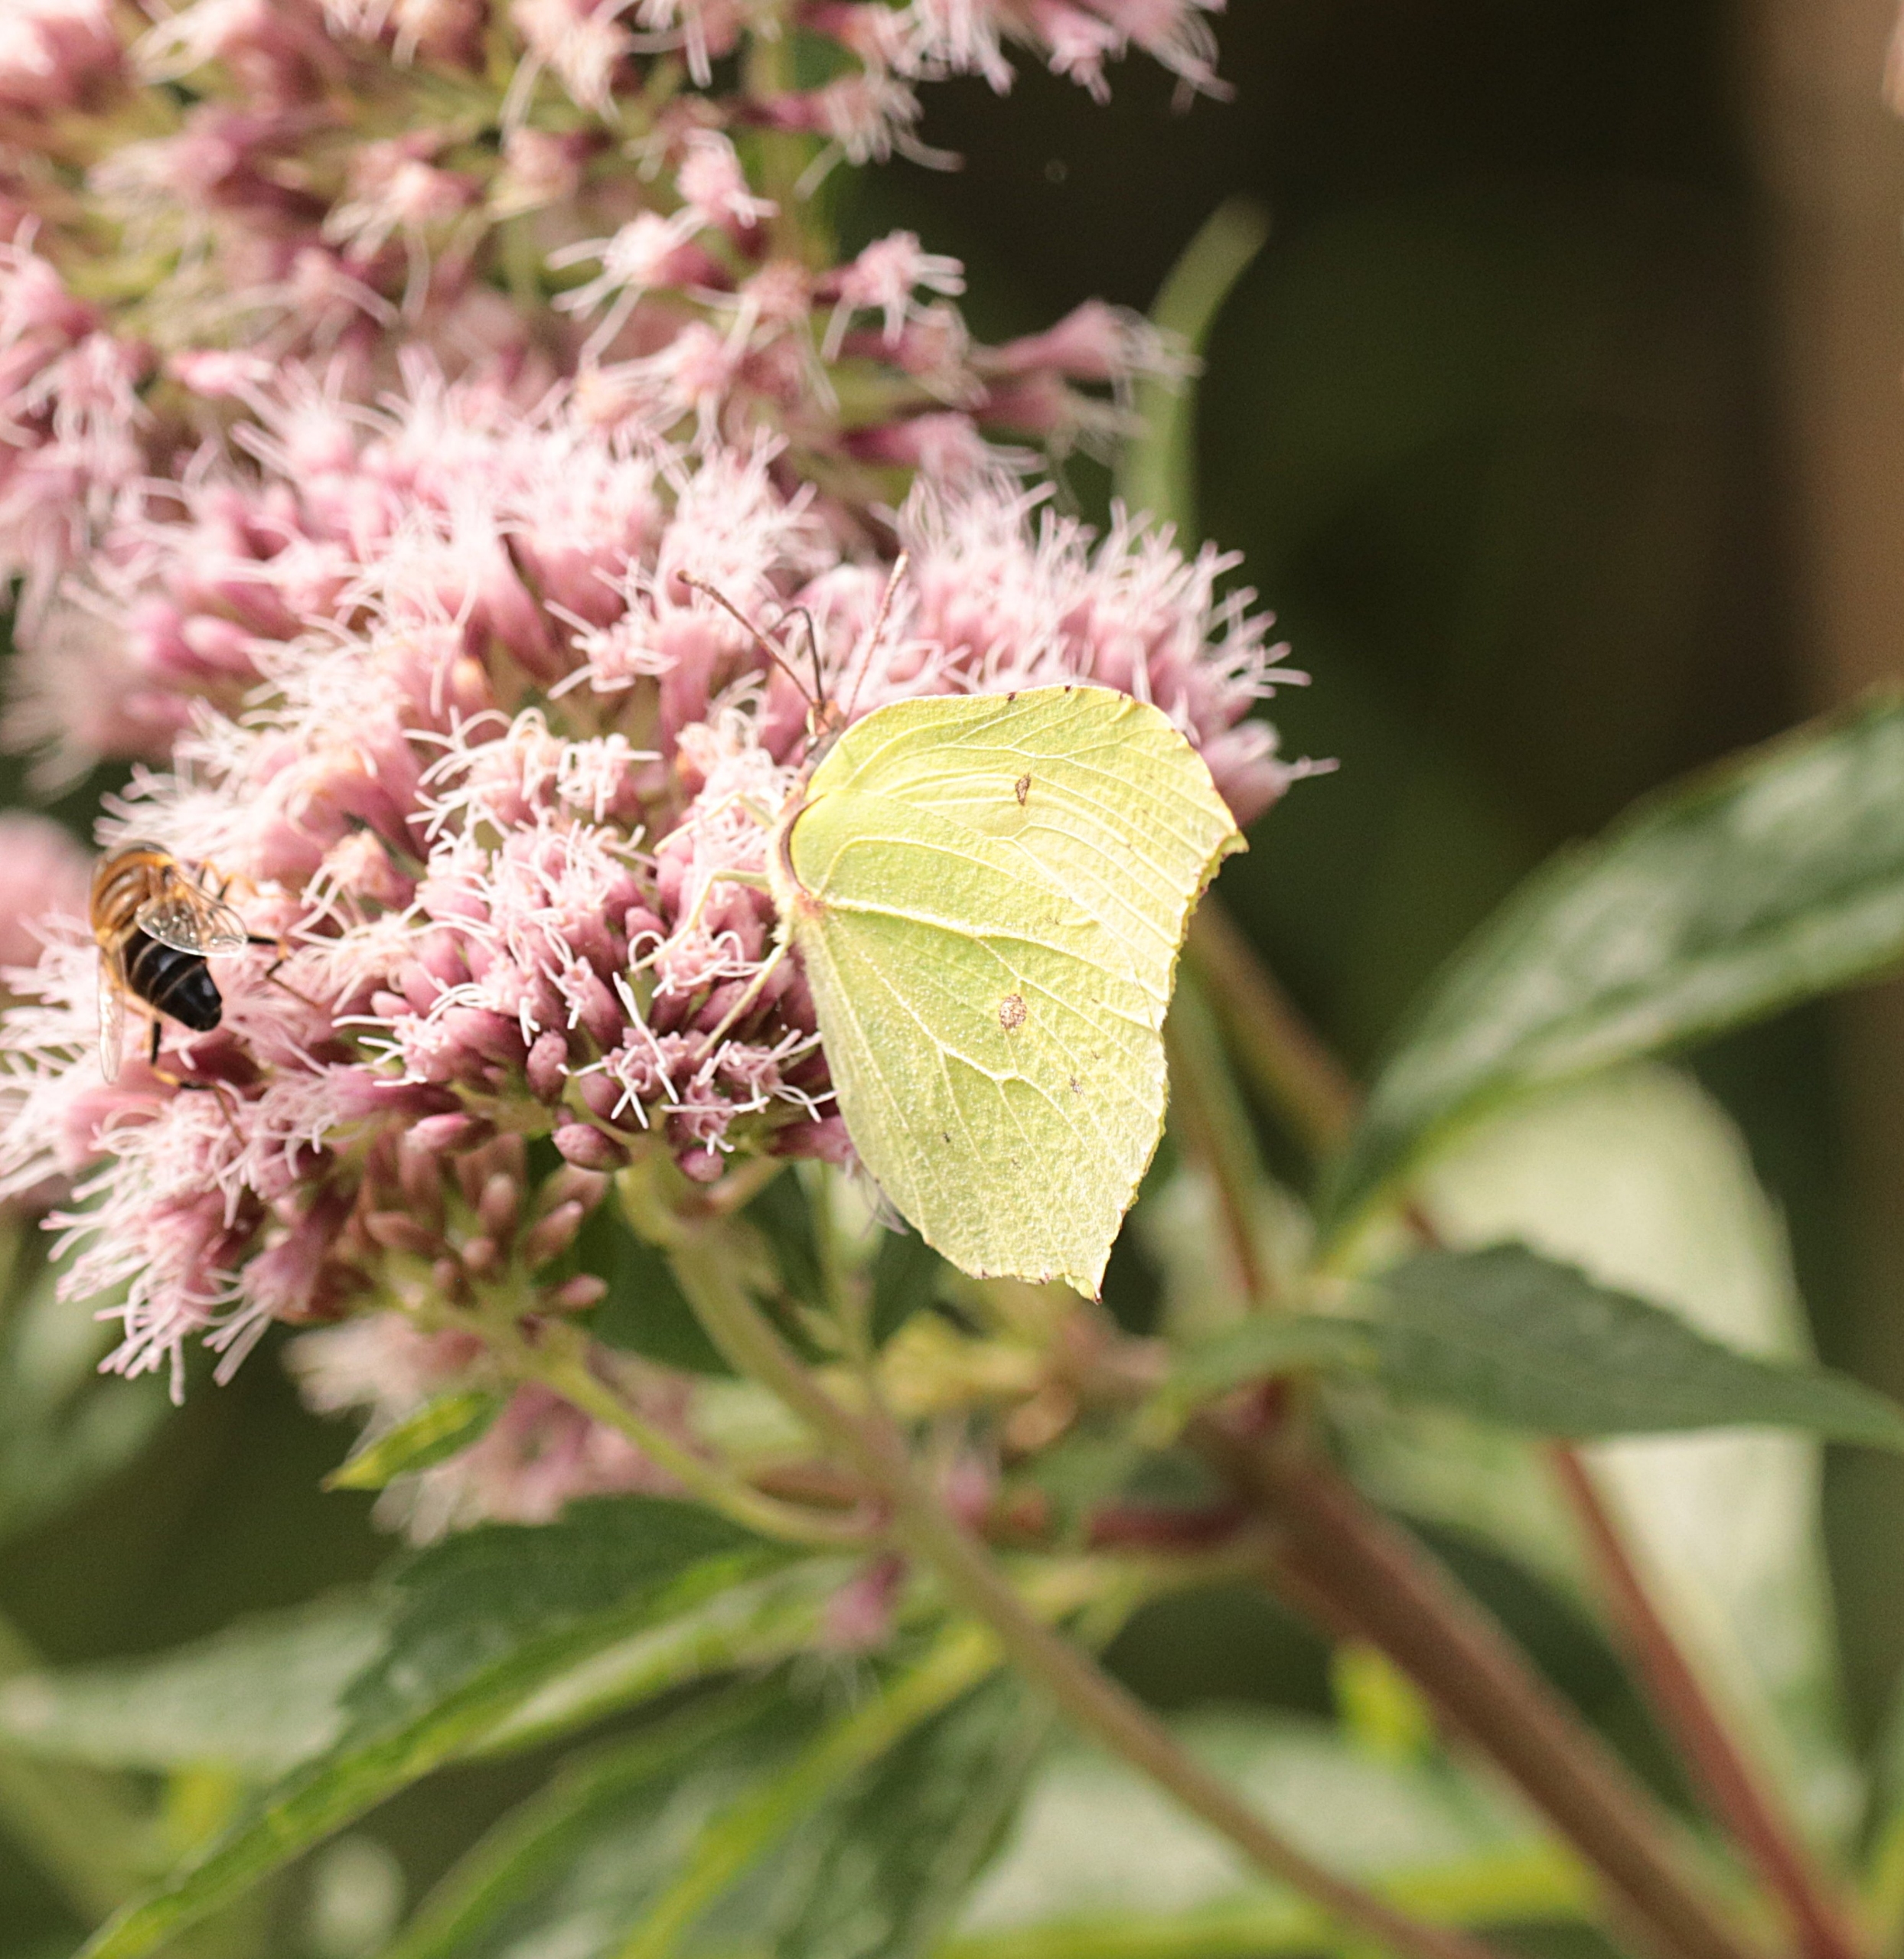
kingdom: Animalia
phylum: Arthropoda
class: Insecta
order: Lepidoptera
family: Pieridae
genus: Gonepteryx
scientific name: Gonepteryx rhamni
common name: Citronsommerfugl
